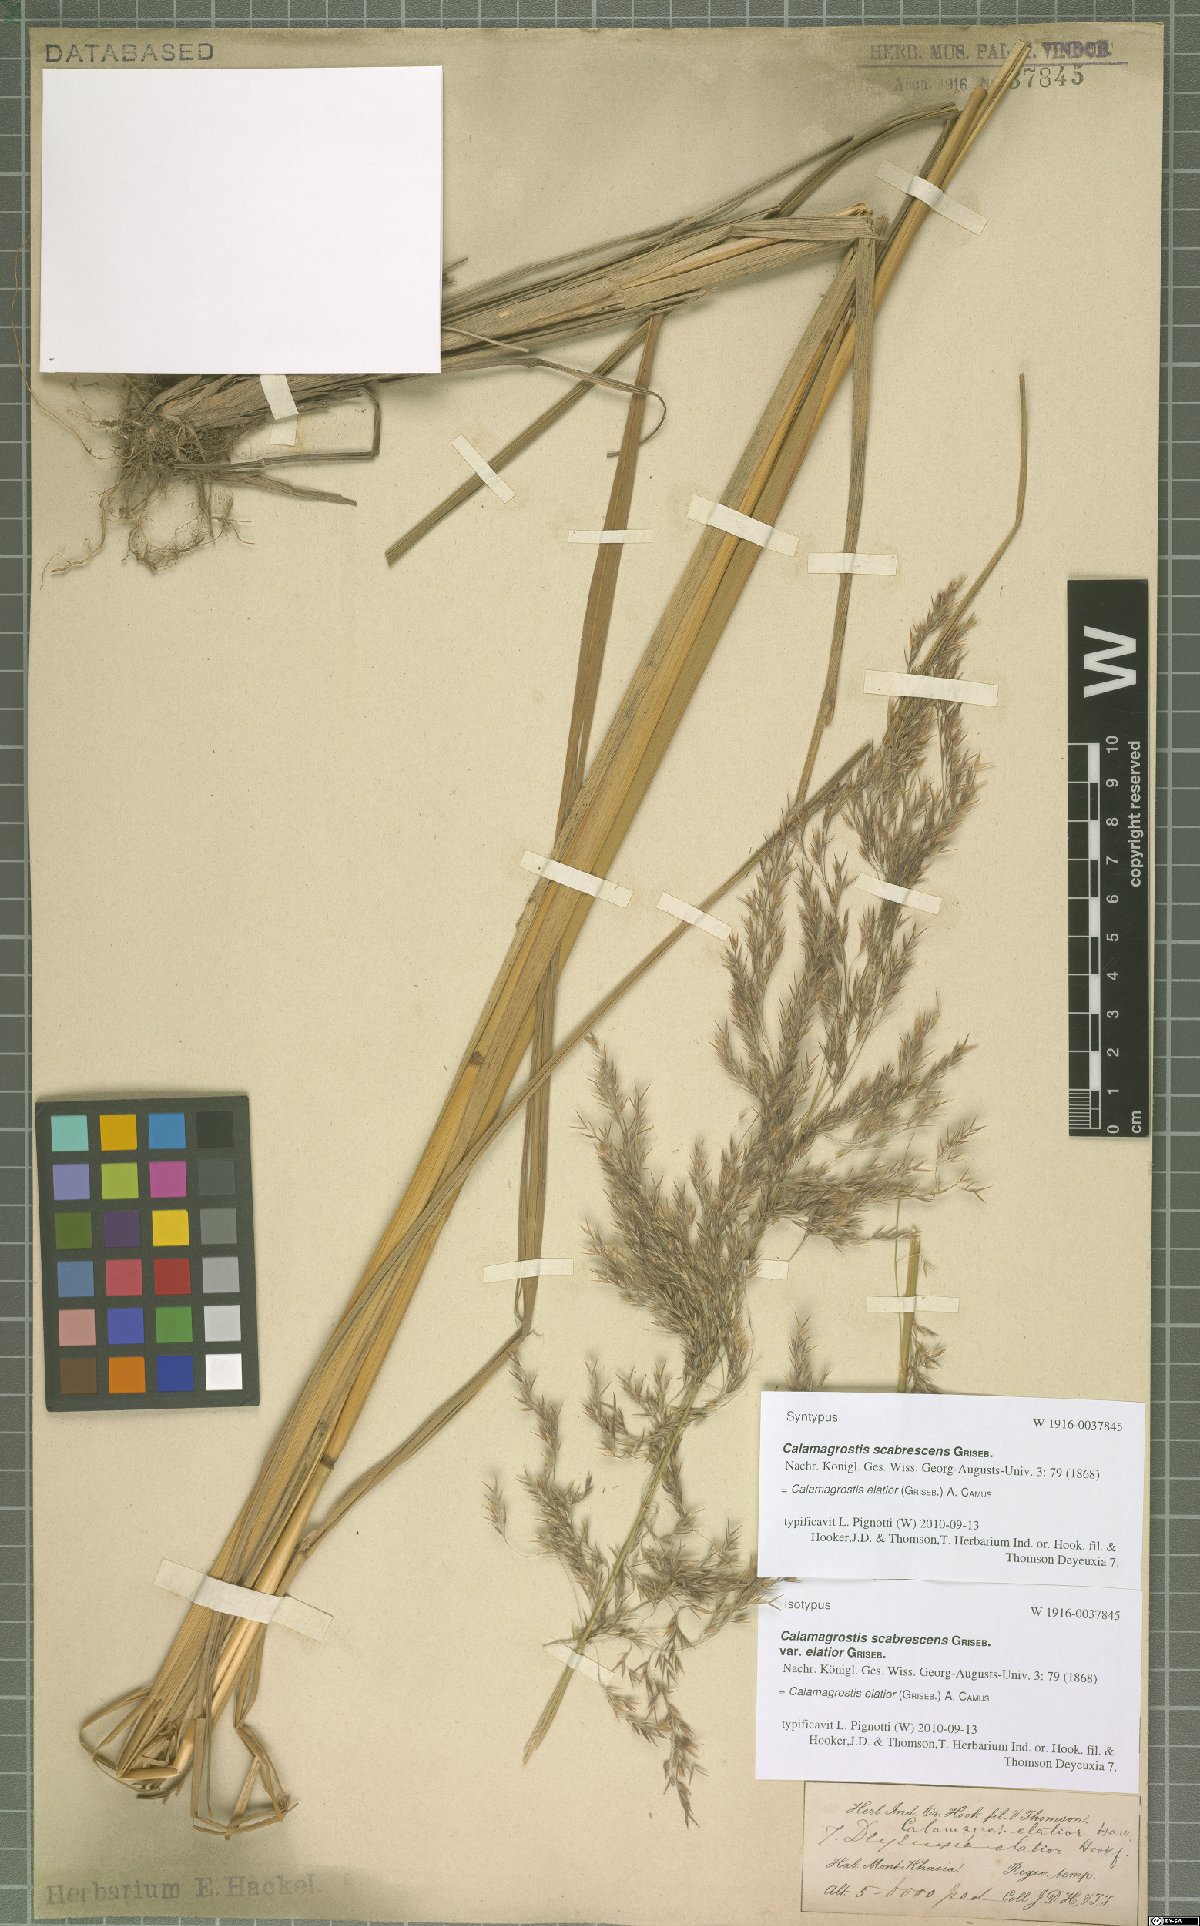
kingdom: Plantae
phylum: Tracheophyta
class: Liliopsida
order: Poales
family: Poaceae
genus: Calamagrostis
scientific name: Calamagrostis elatior
